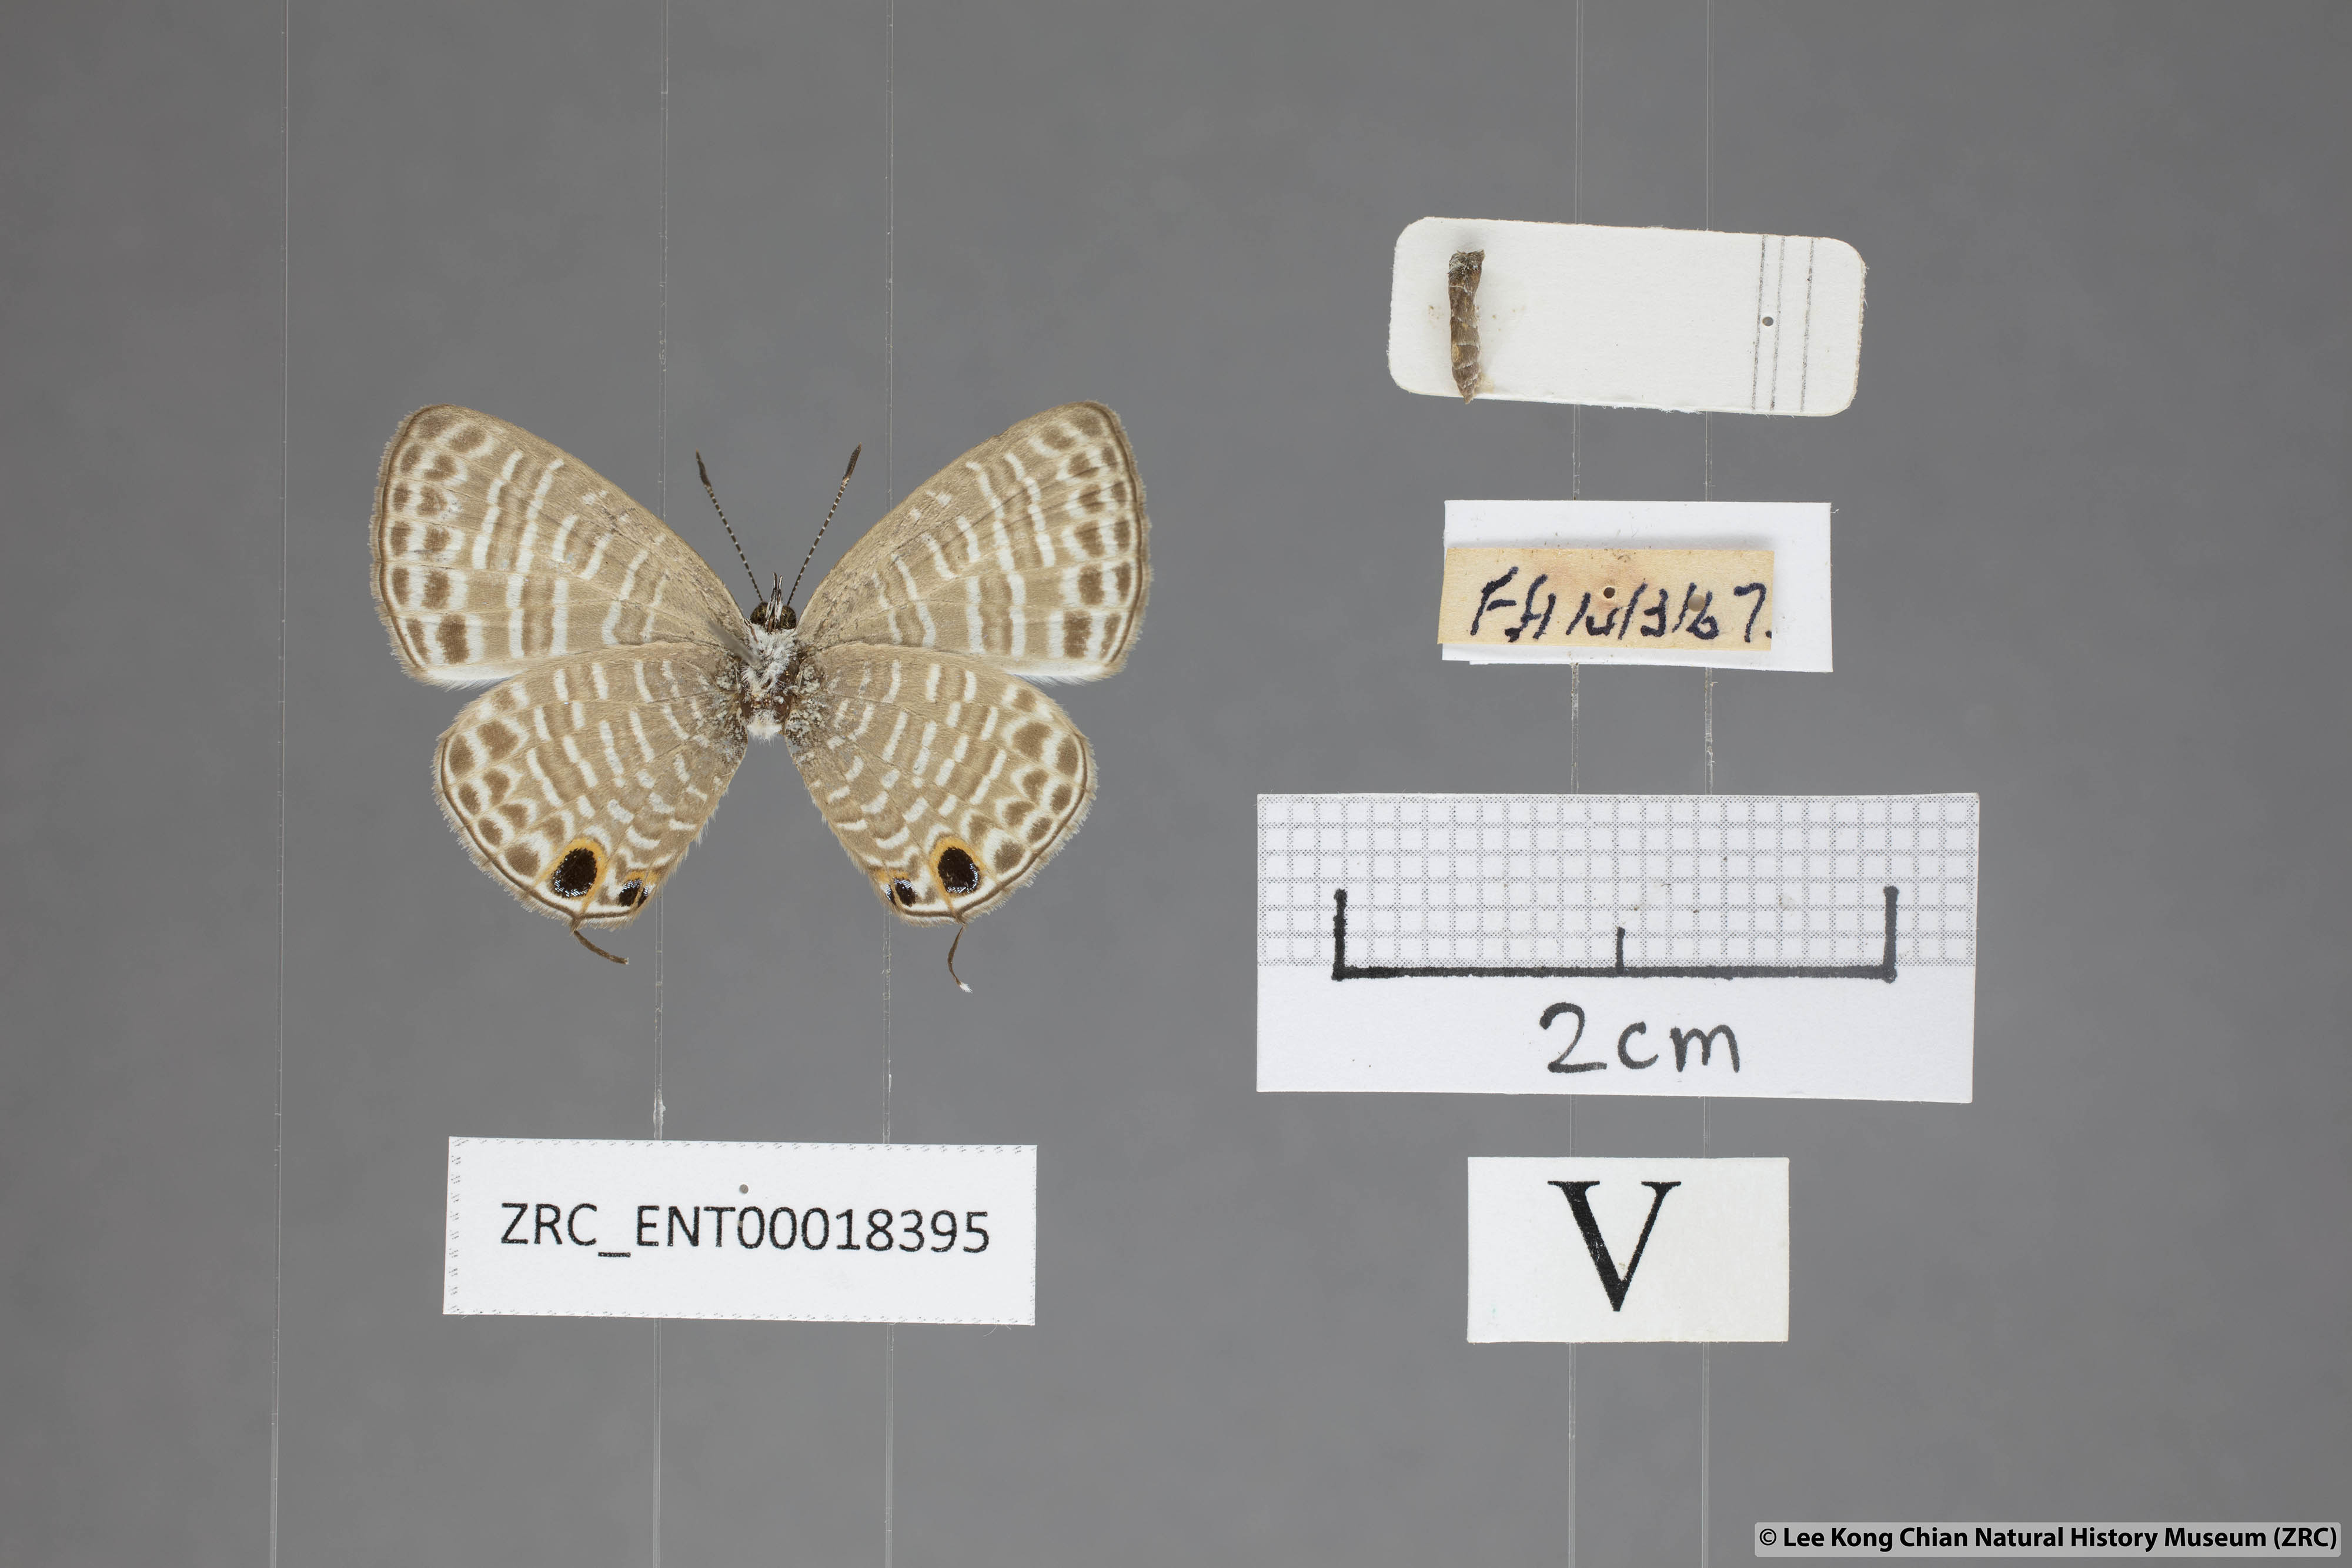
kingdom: Animalia
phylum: Arthropoda
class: Insecta
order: Lepidoptera
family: Lycaenidae
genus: Nacaduba
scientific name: Nacaduba kurava
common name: Transparent 6-line blue
